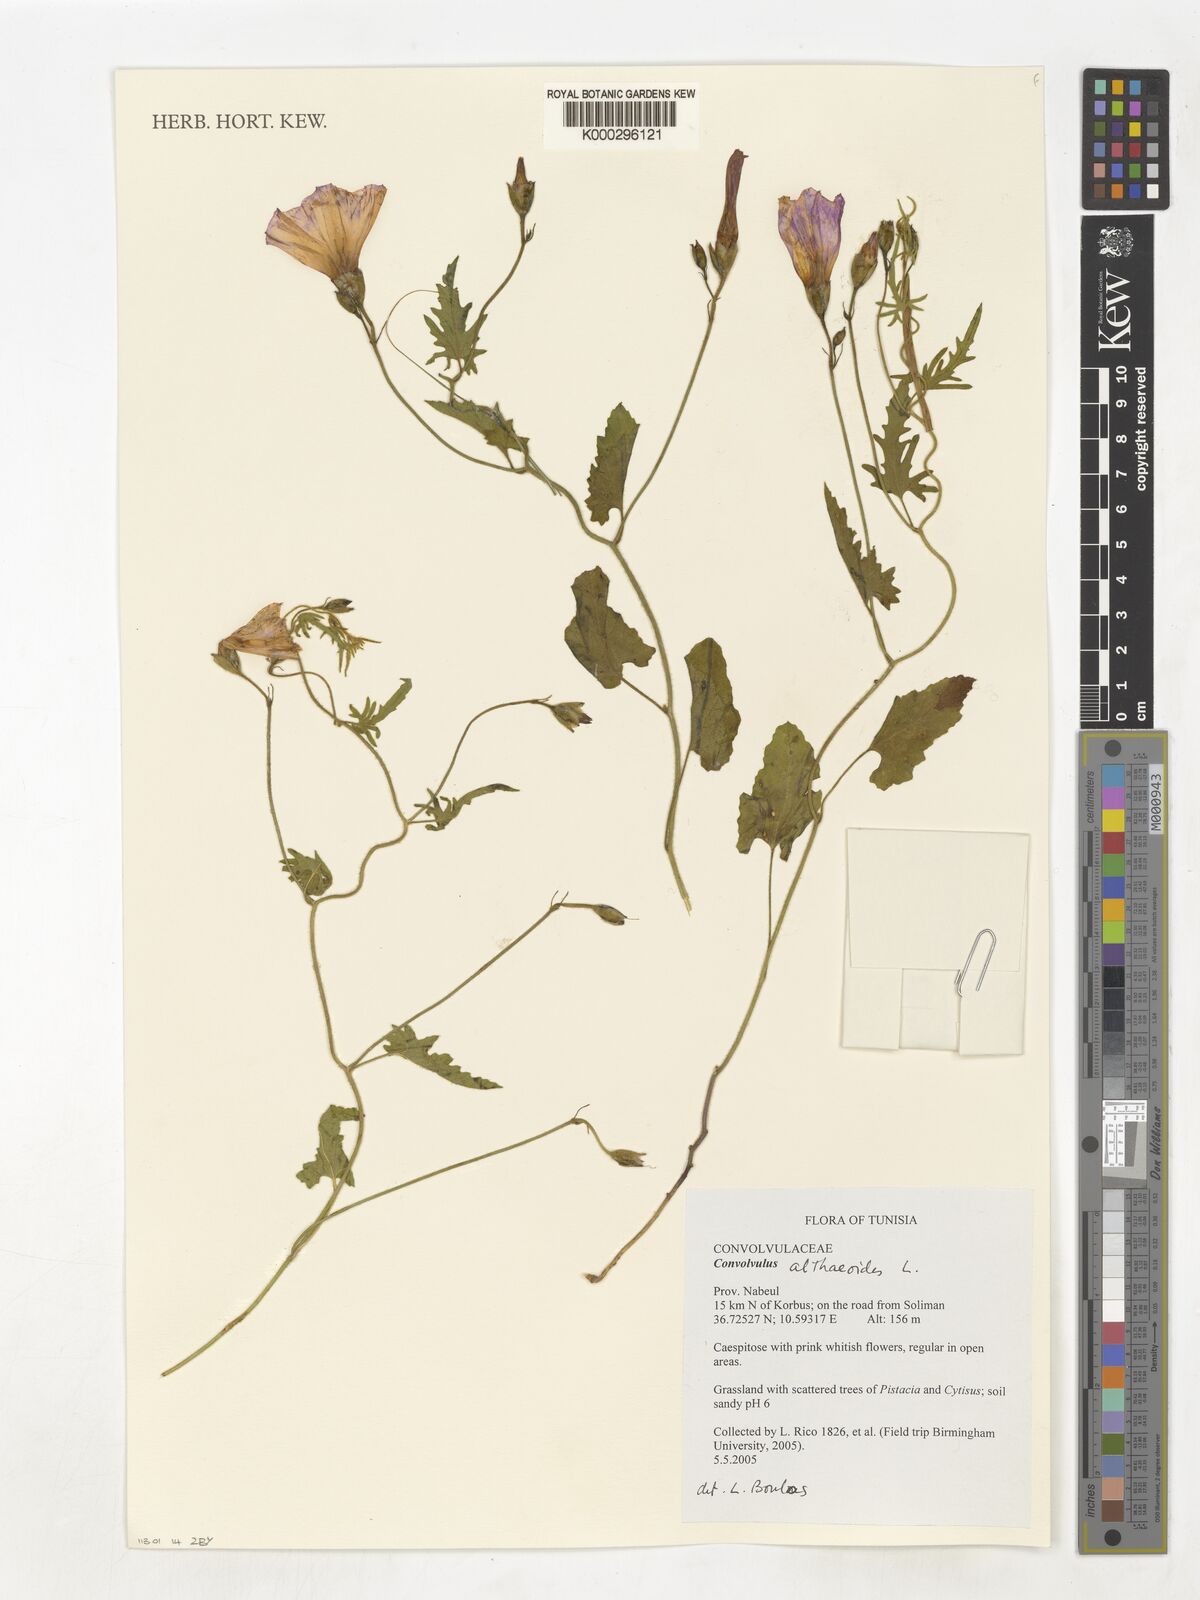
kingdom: Plantae
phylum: Tracheophyta
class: Magnoliopsida
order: Solanales
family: Convolvulaceae
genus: Convolvulus
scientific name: Convolvulus althaeoides
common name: Mallow bindweed
